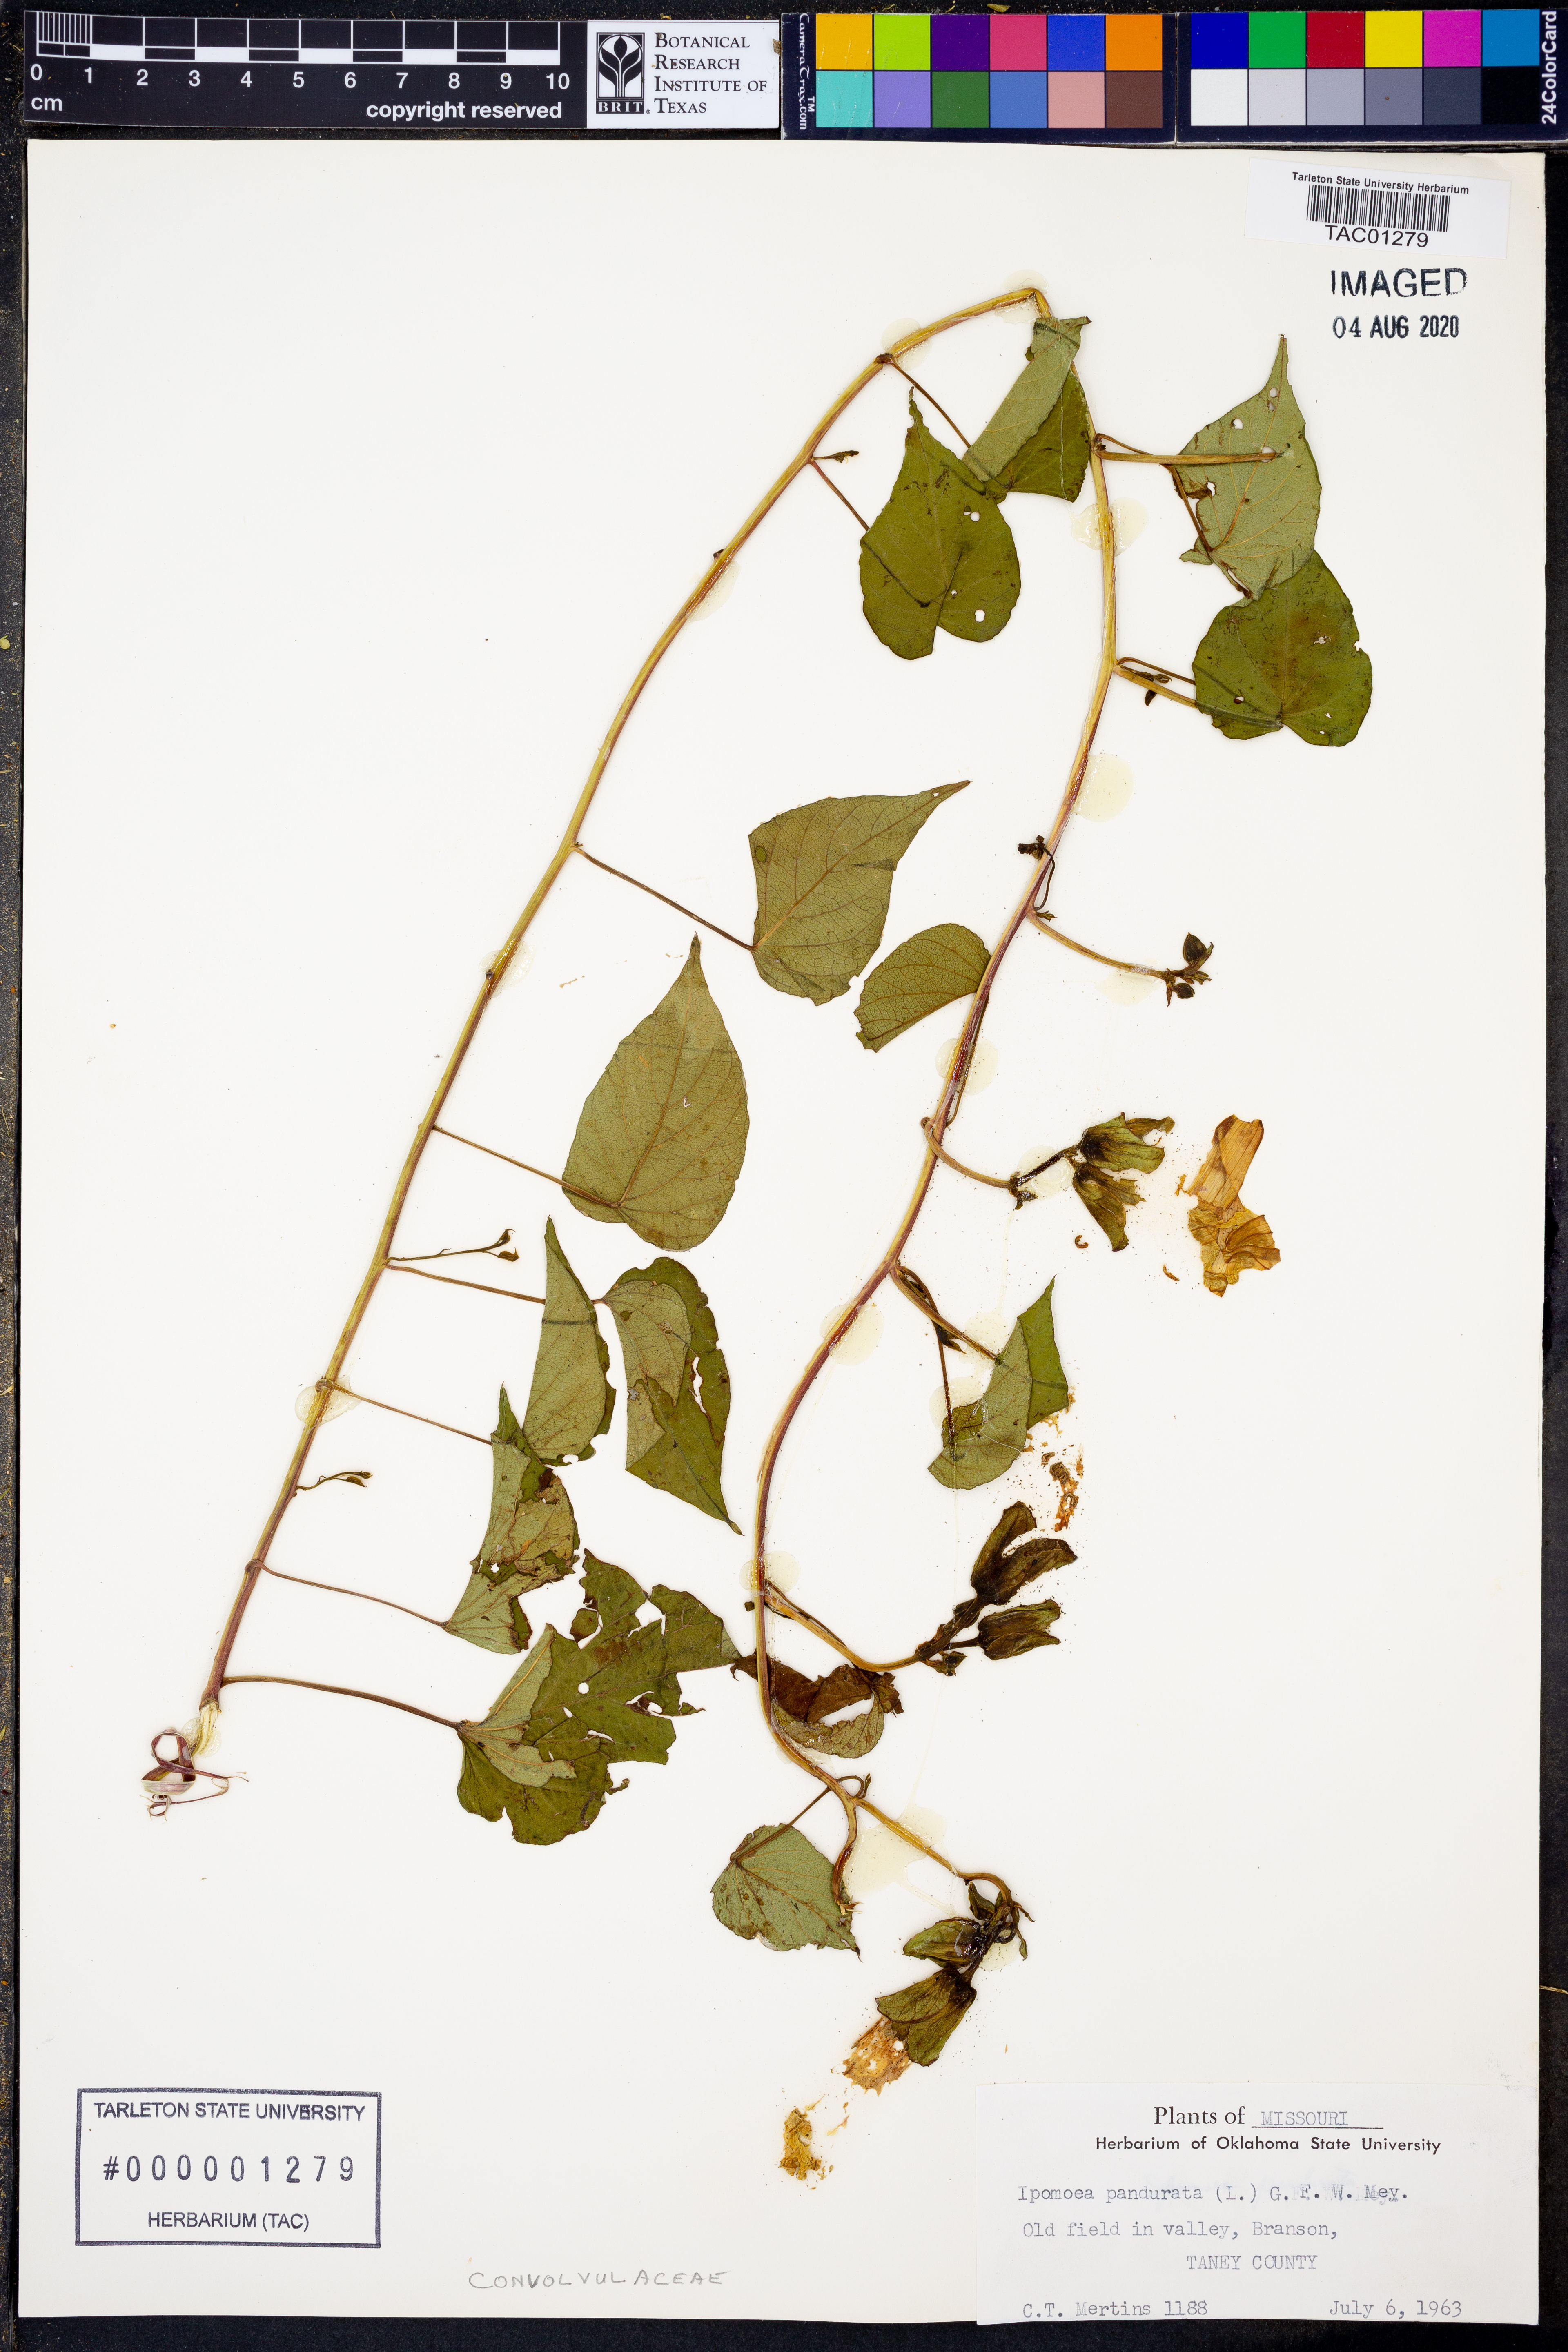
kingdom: Plantae
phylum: Tracheophyta
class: Magnoliopsida
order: Solanales
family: Convolvulaceae
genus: Ipomoea
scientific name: Ipomoea pandurata
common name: Man-of-the-earth
